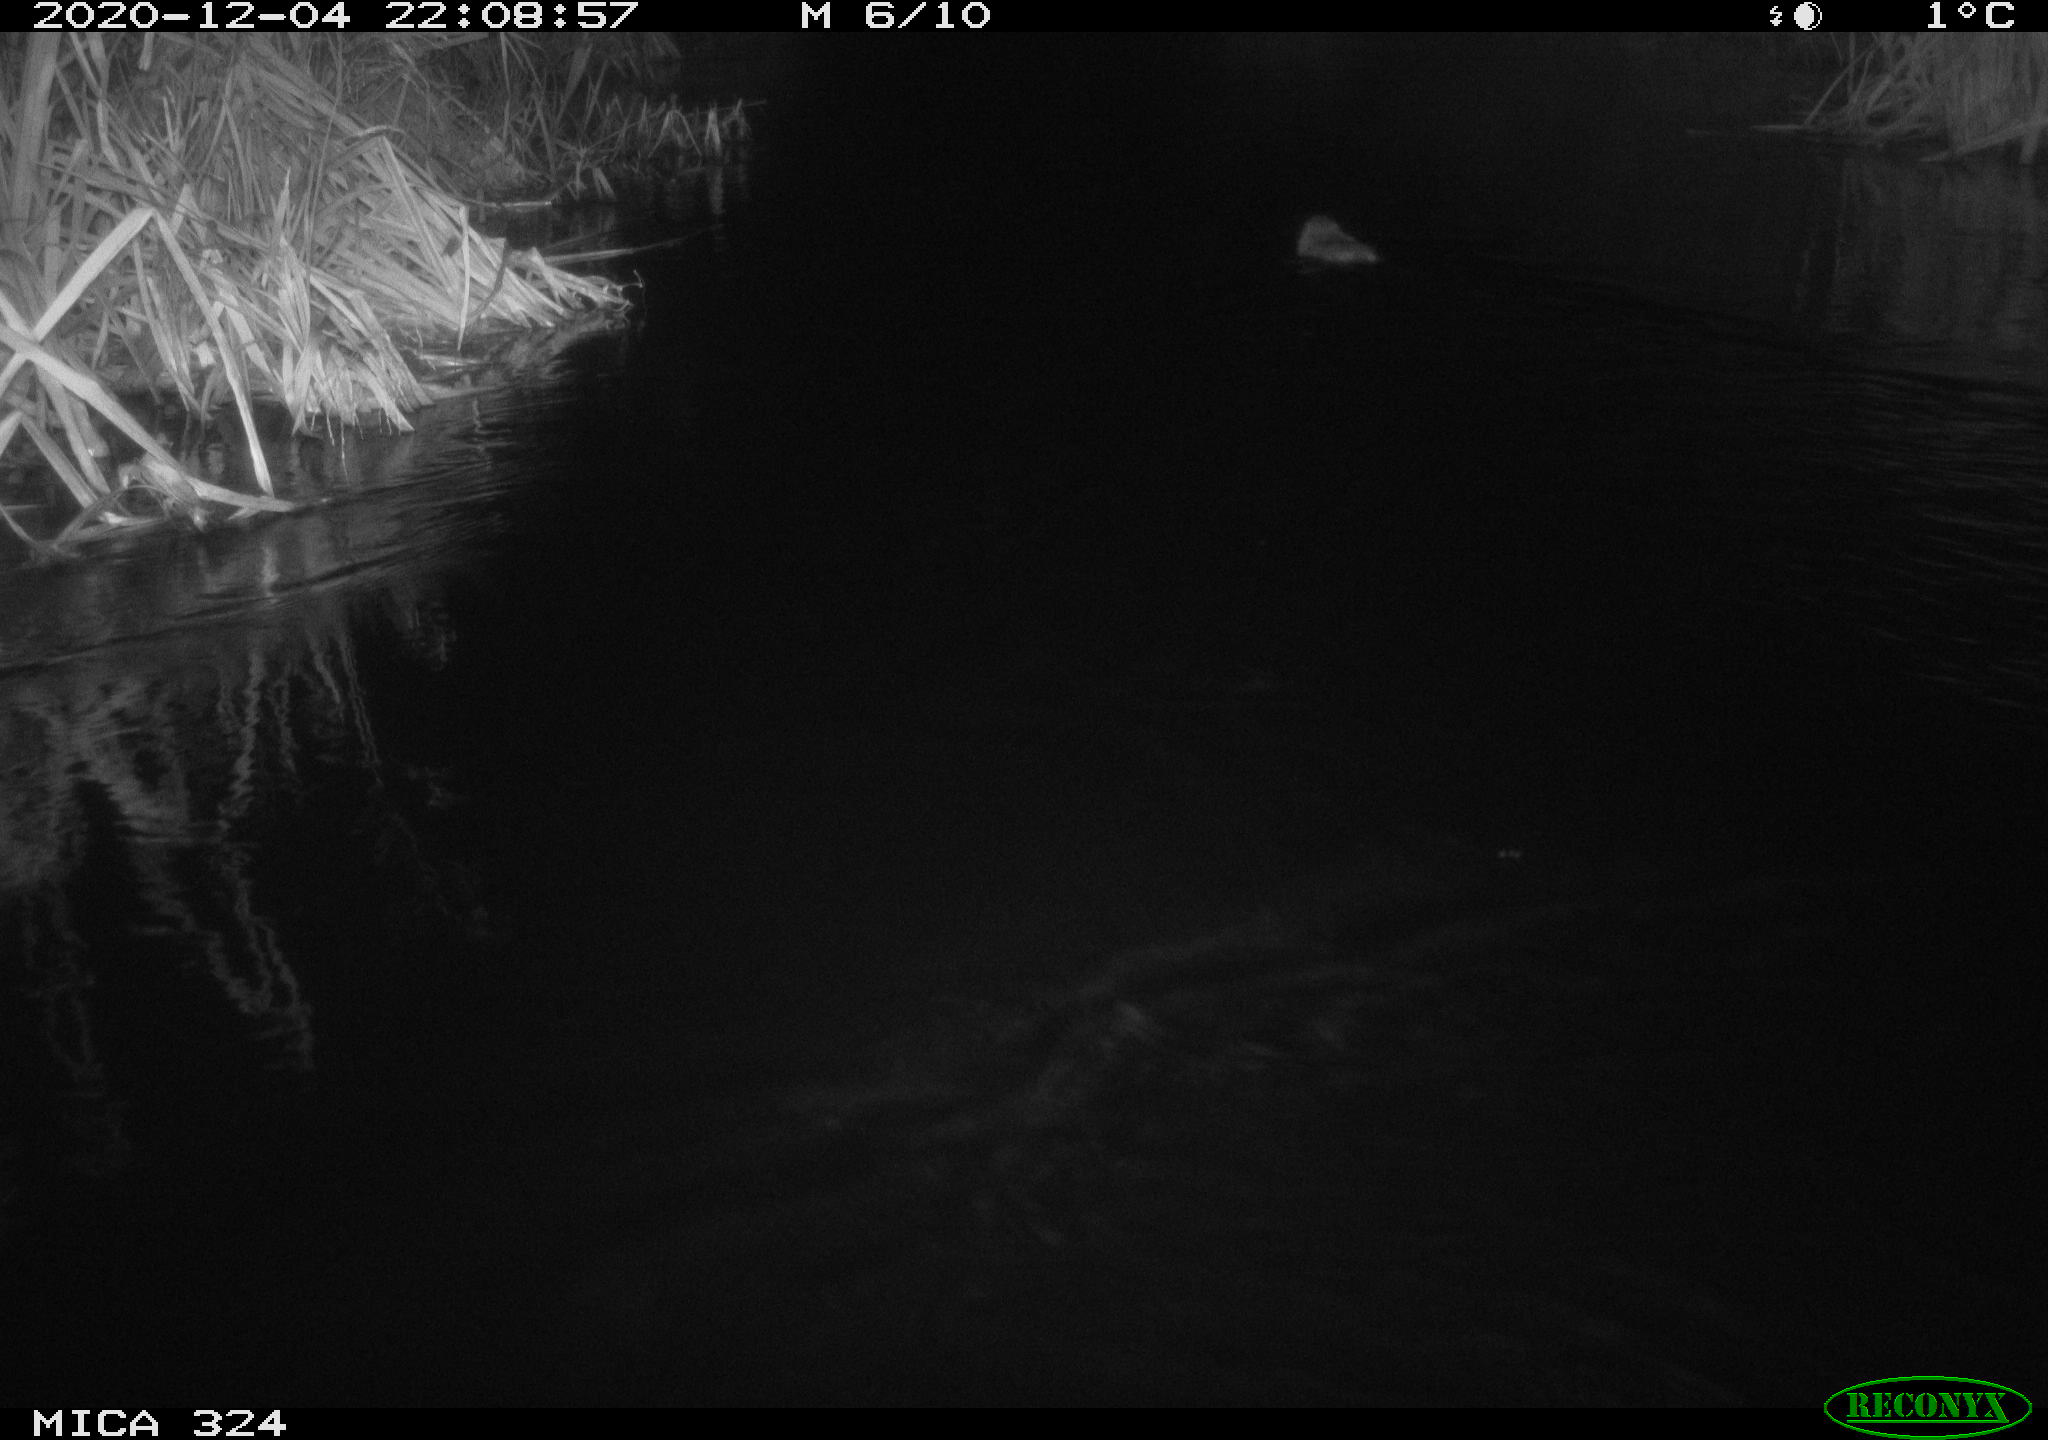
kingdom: Animalia
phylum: Chordata
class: Mammalia
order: Rodentia
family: Myocastoridae
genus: Myocastor
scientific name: Myocastor coypus
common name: Coypu
